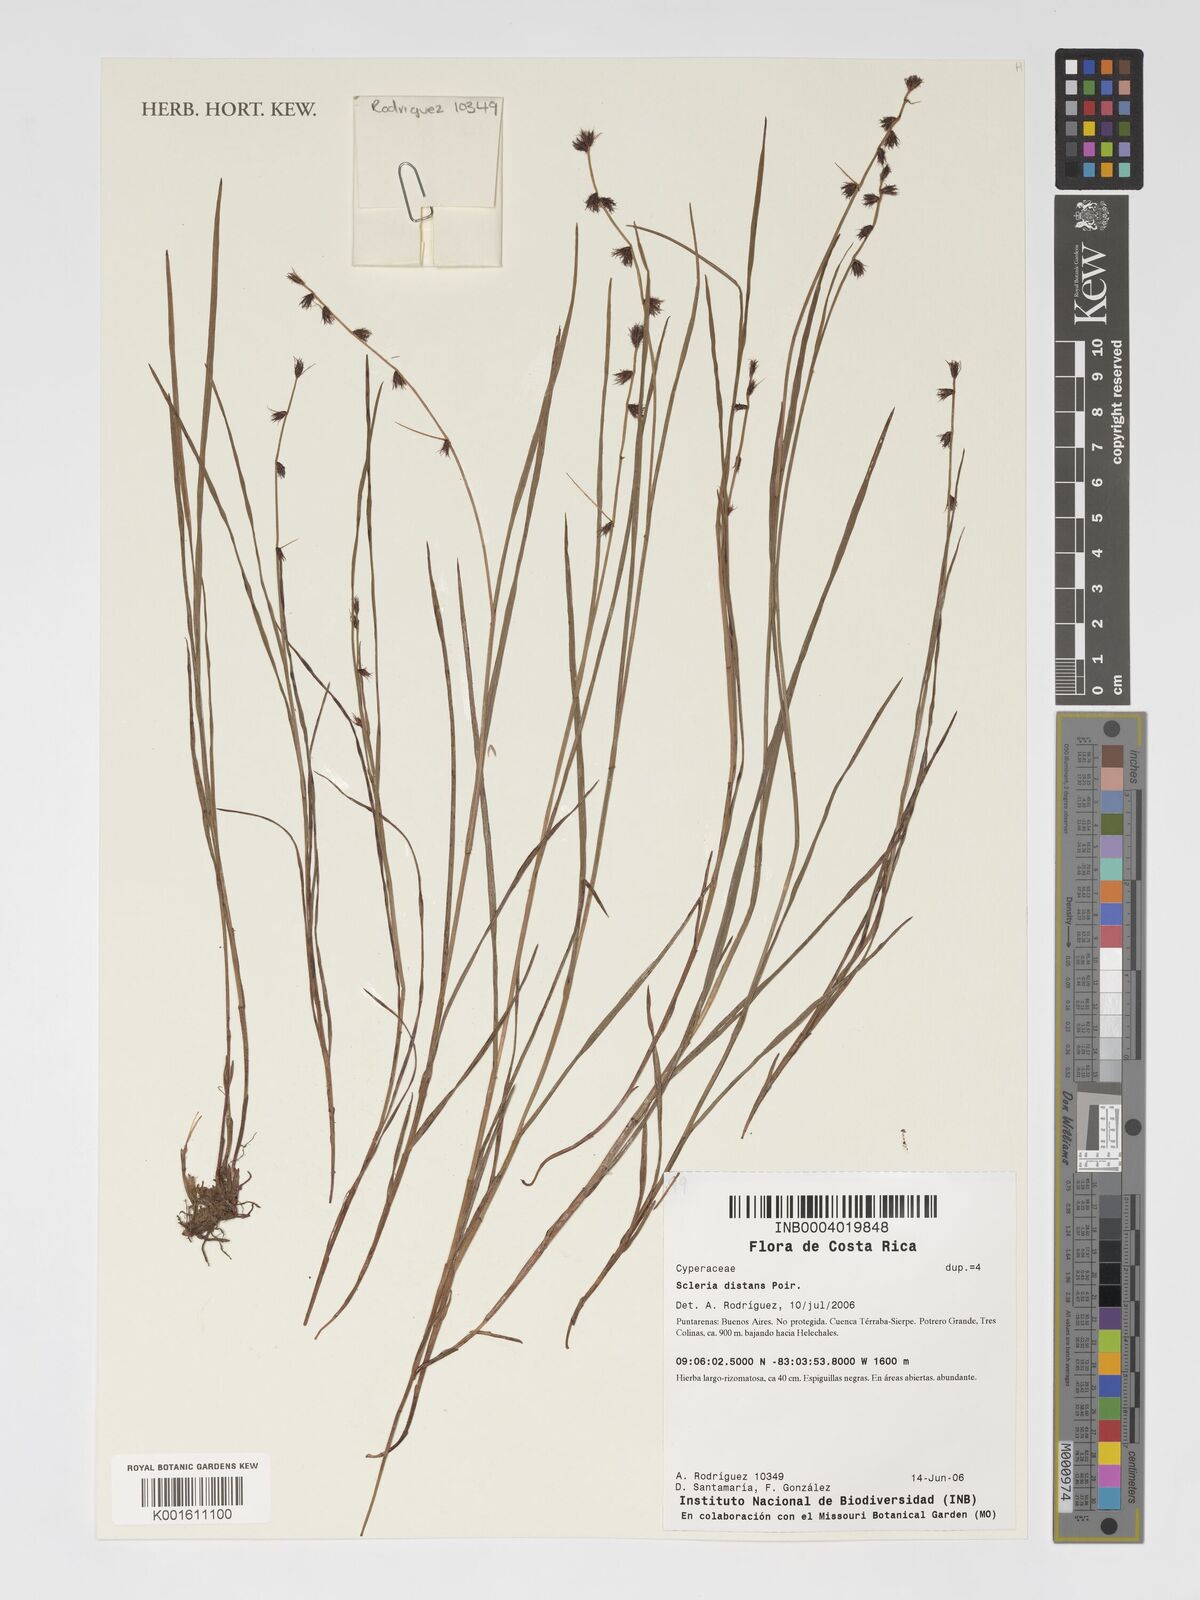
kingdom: Plantae
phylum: Tracheophyta
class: Liliopsida
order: Poales
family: Cyperaceae
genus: Scleria
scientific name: Scleria distans
